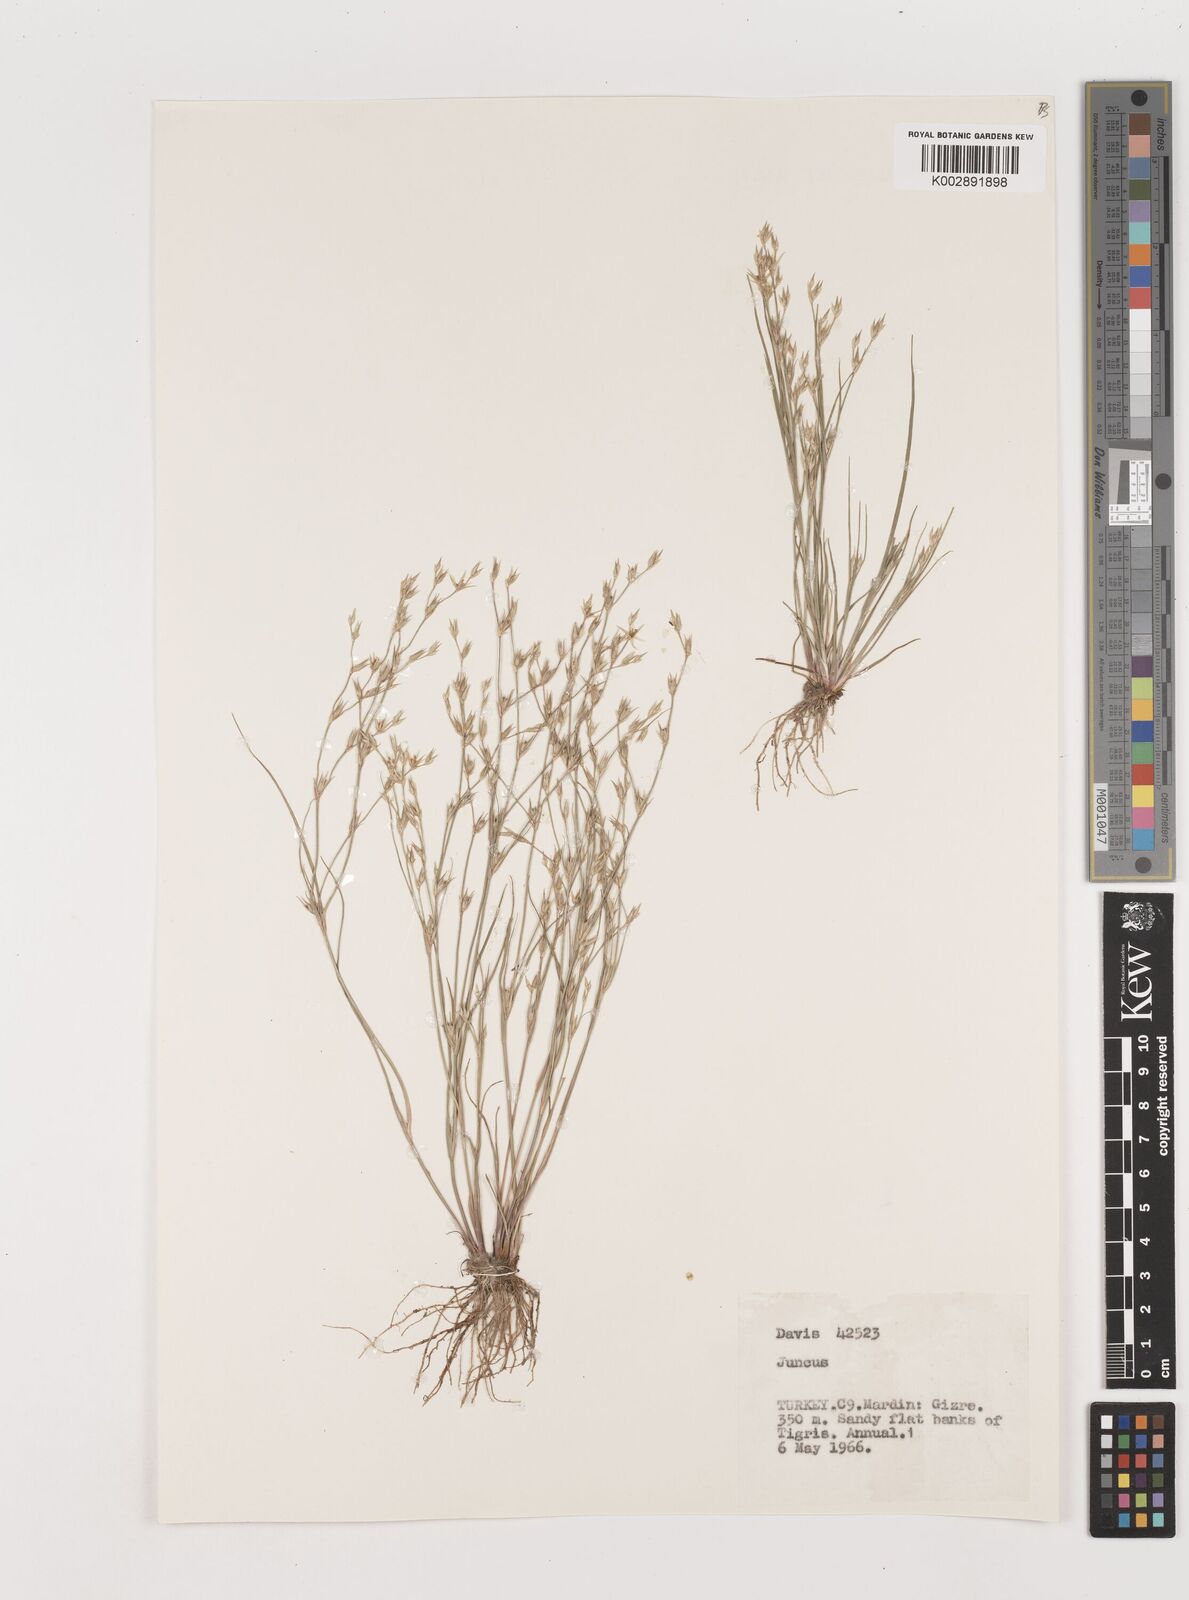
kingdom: Plantae
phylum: Tracheophyta
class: Liliopsida
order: Poales
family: Juncaceae
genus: Juncus
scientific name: Juncus
